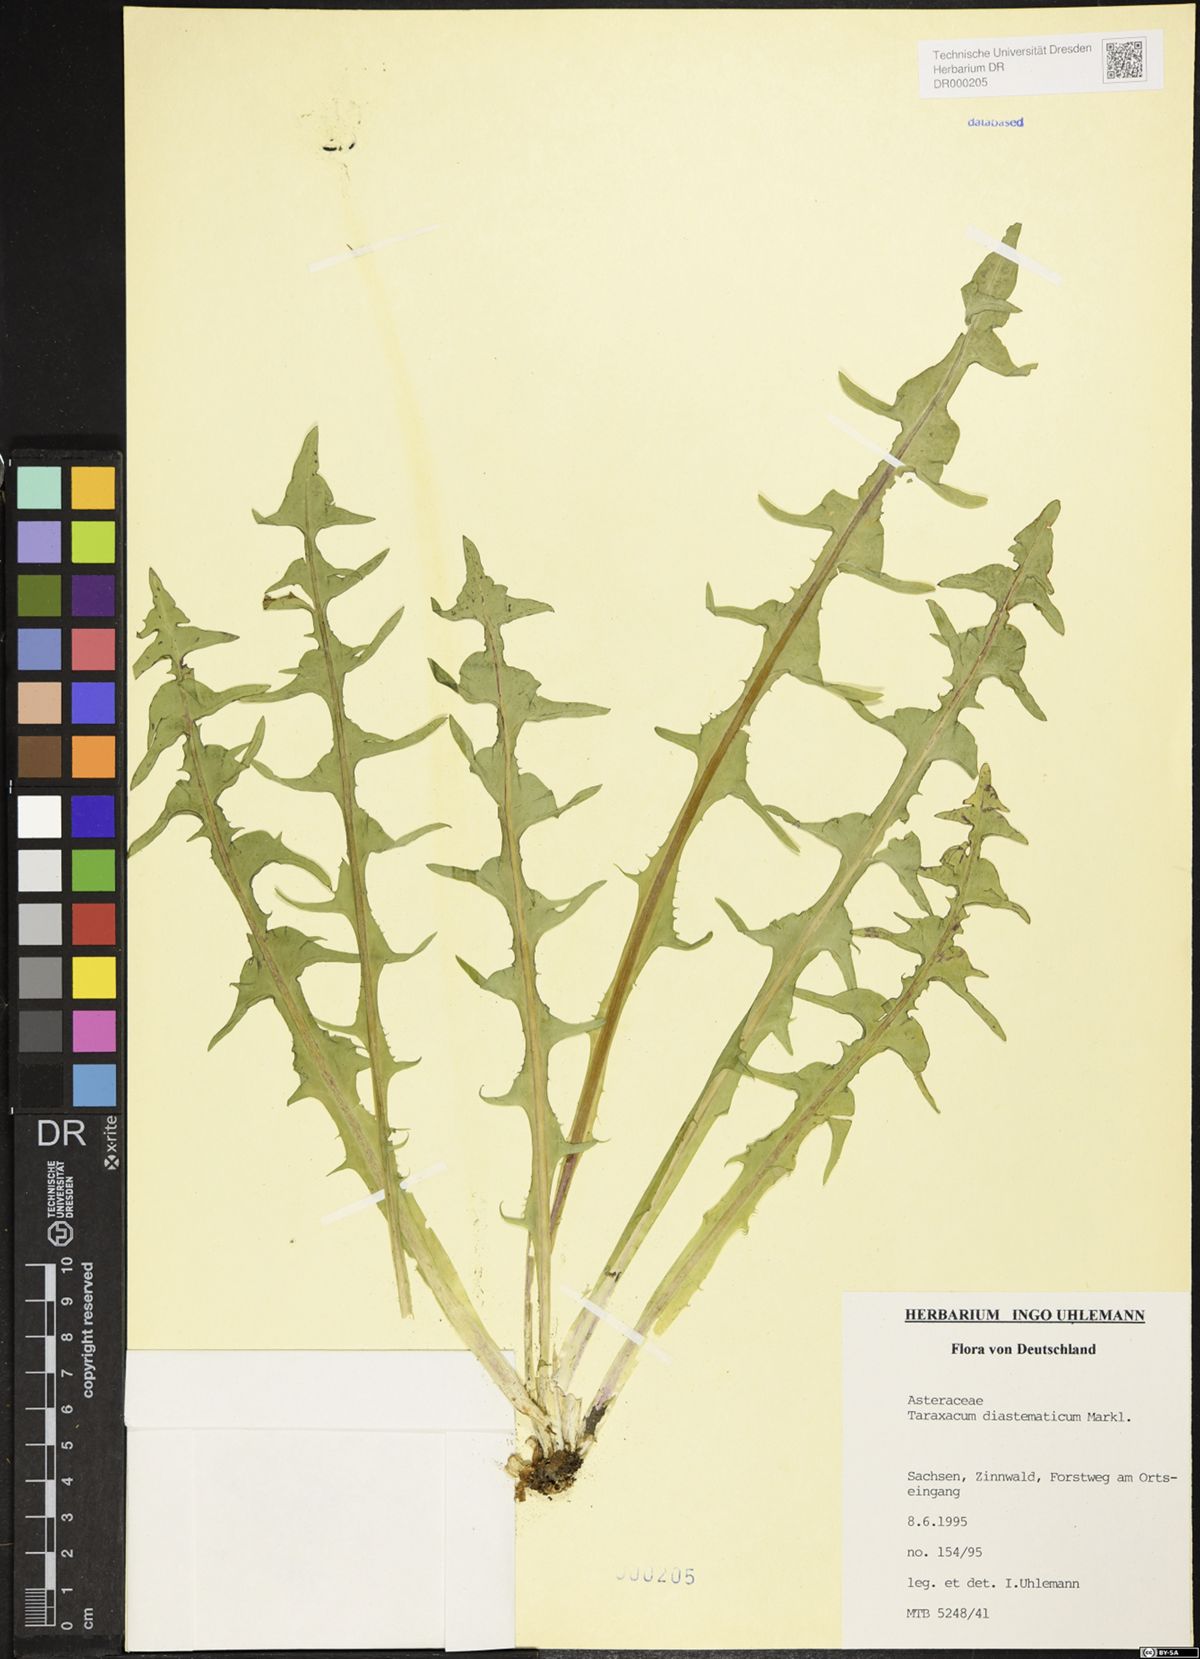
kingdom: Plantae
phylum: Tracheophyta
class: Magnoliopsida
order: Asterales
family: Asteraceae
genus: Taraxacum
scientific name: Taraxacum diastematicum
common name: Bulbous-lobed dandelion
